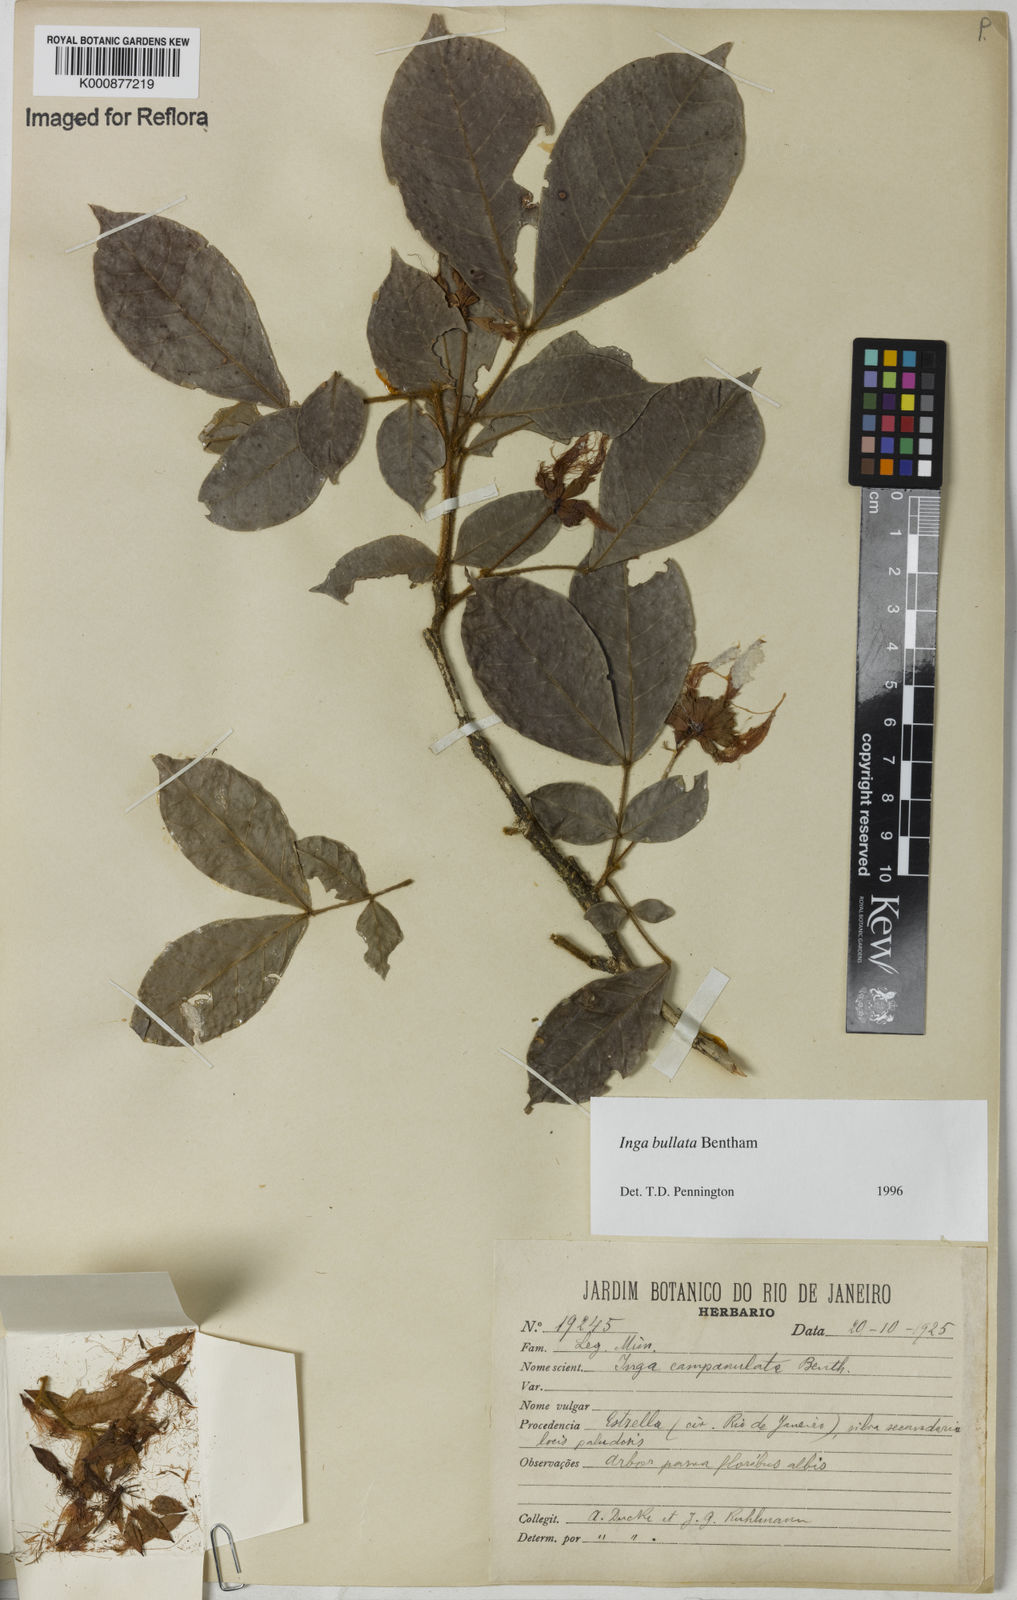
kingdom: Plantae
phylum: Tracheophyta
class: Magnoliopsida
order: Fabales
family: Fabaceae
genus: Inga
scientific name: Inga bullata
